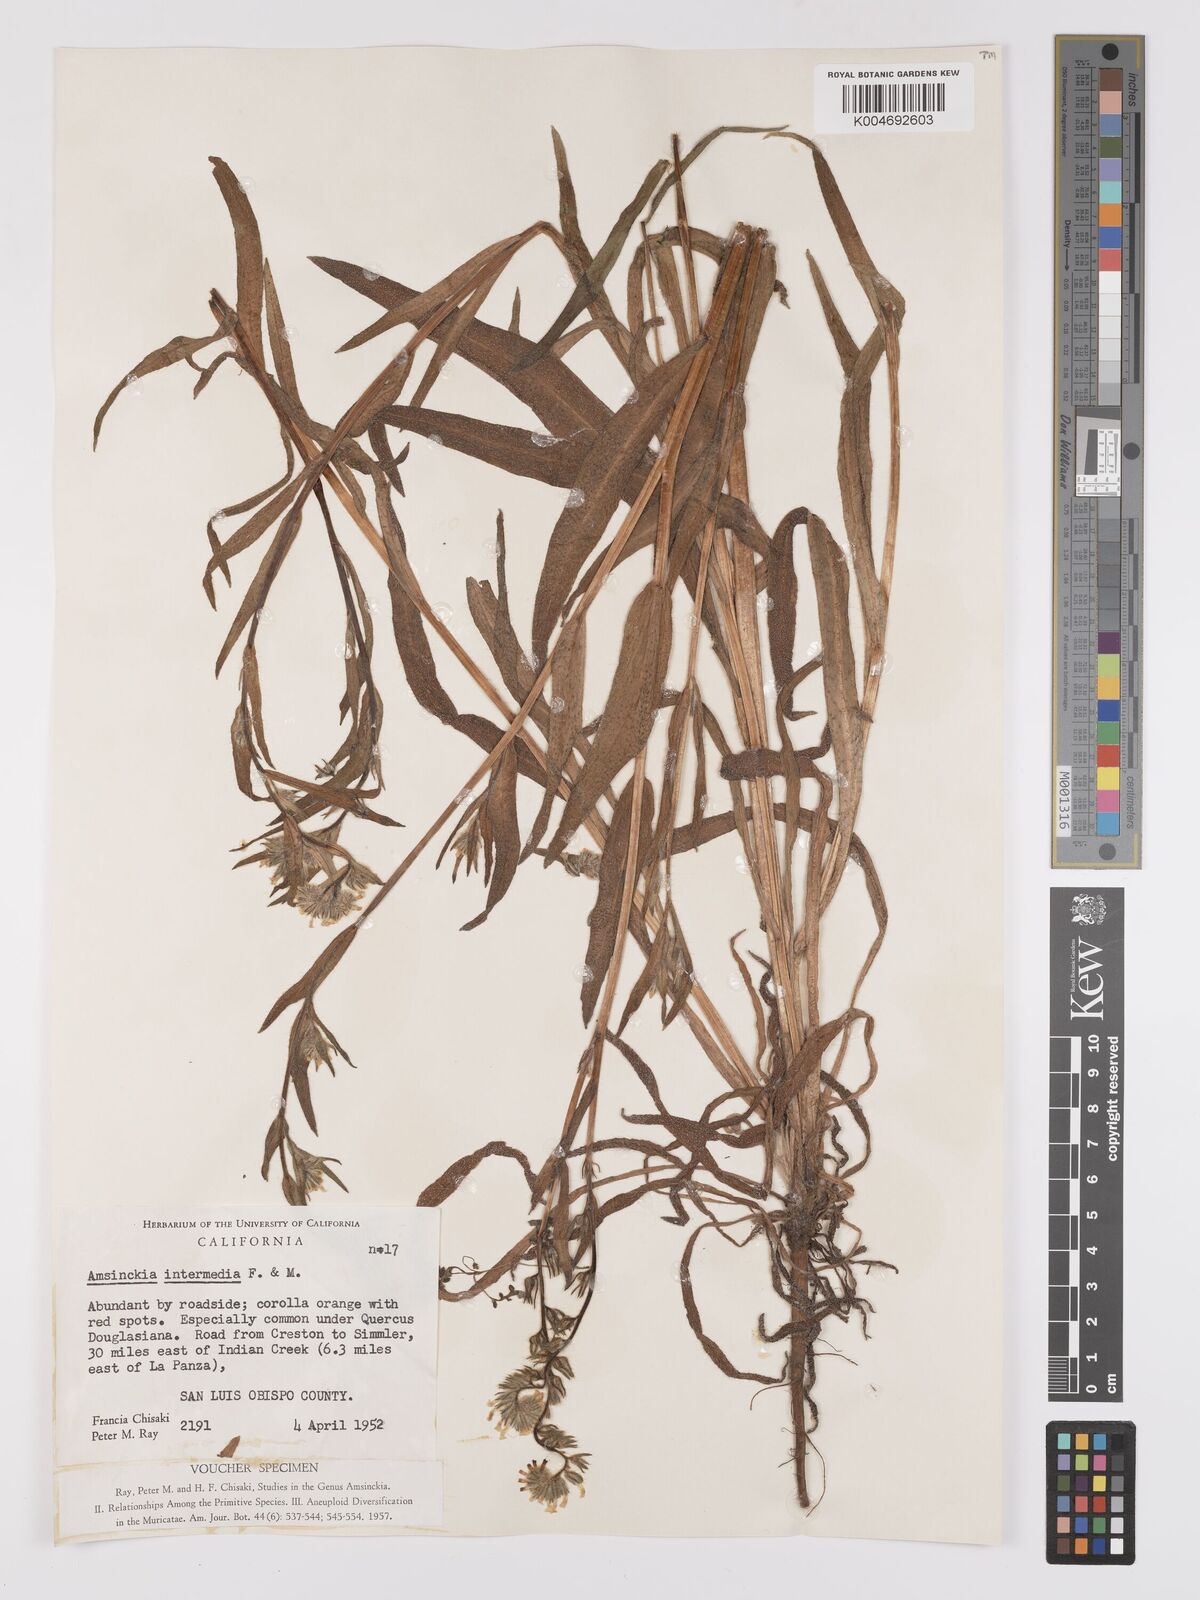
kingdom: Plantae
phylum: Tracheophyta
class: Magnoliopsida
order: Boraginales
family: Boraginaceae
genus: Amsinckia
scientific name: Amsinckia menziesii
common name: Menzies' fiddleneck
